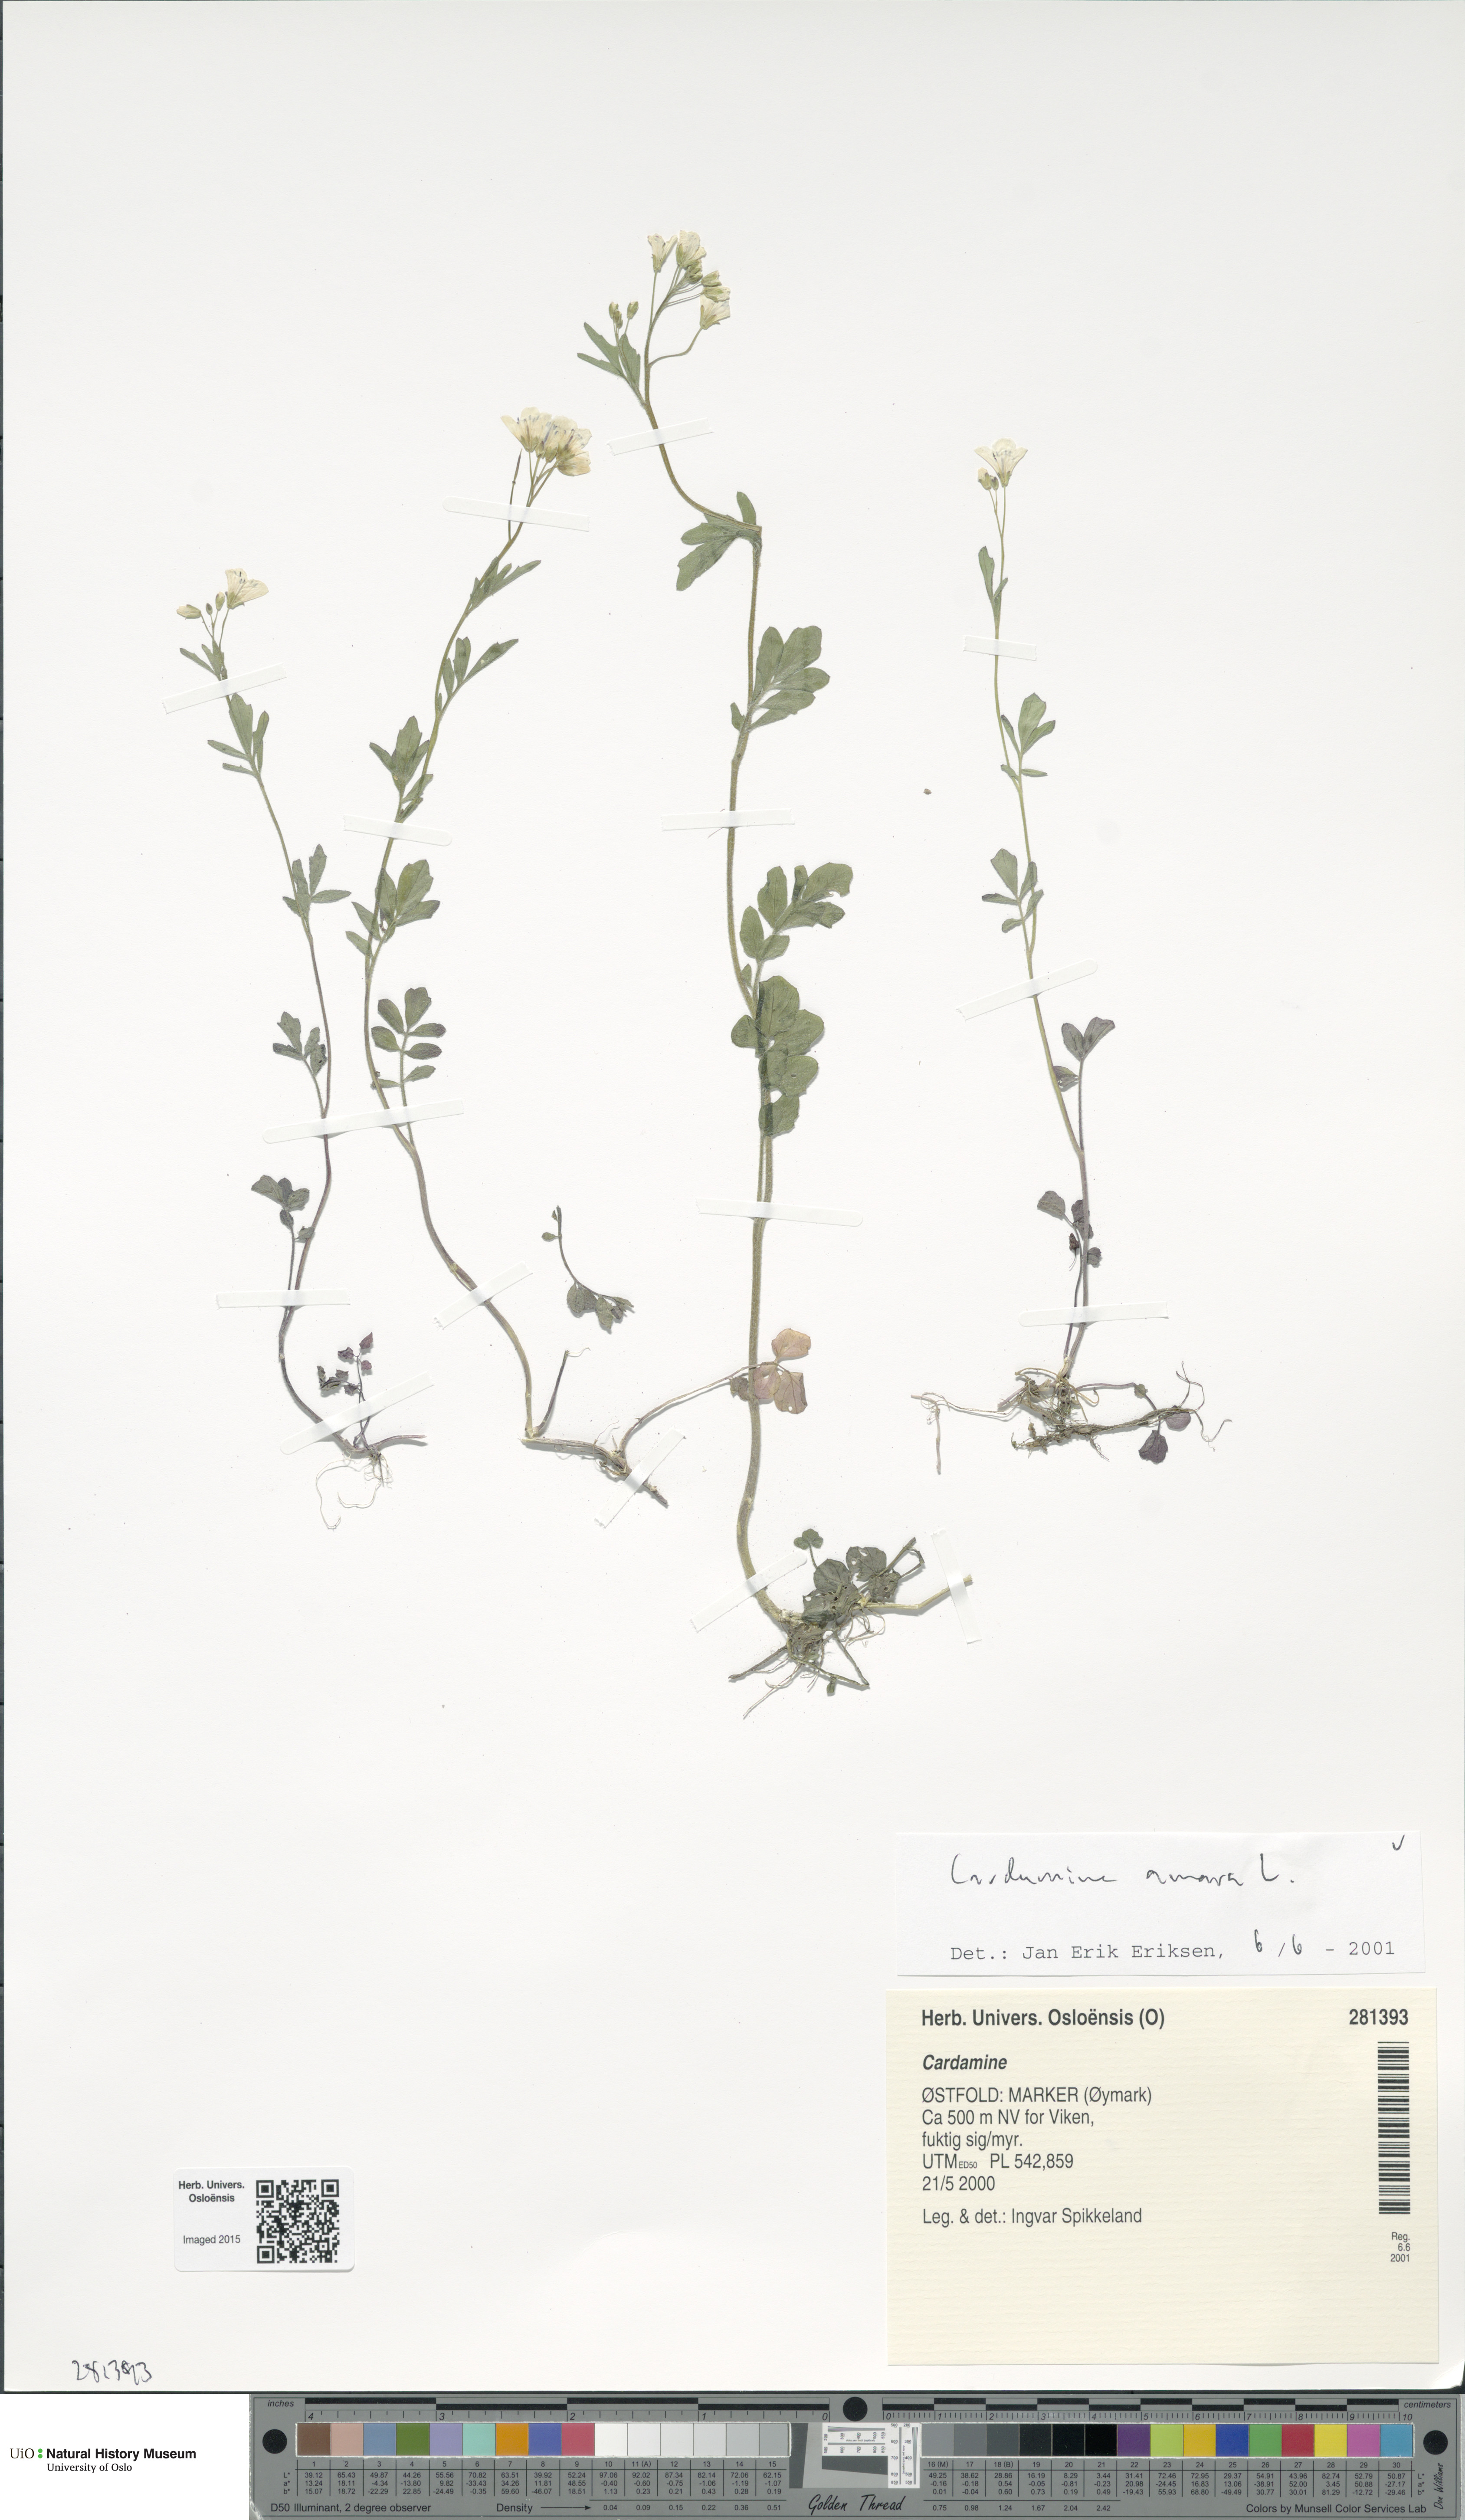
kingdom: Plantae
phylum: Tracheophyta
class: Magnoliopsida
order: Brassicales
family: Brassicaceae
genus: Cardamine
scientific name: Cardamine amara
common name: Large bitter-cress
